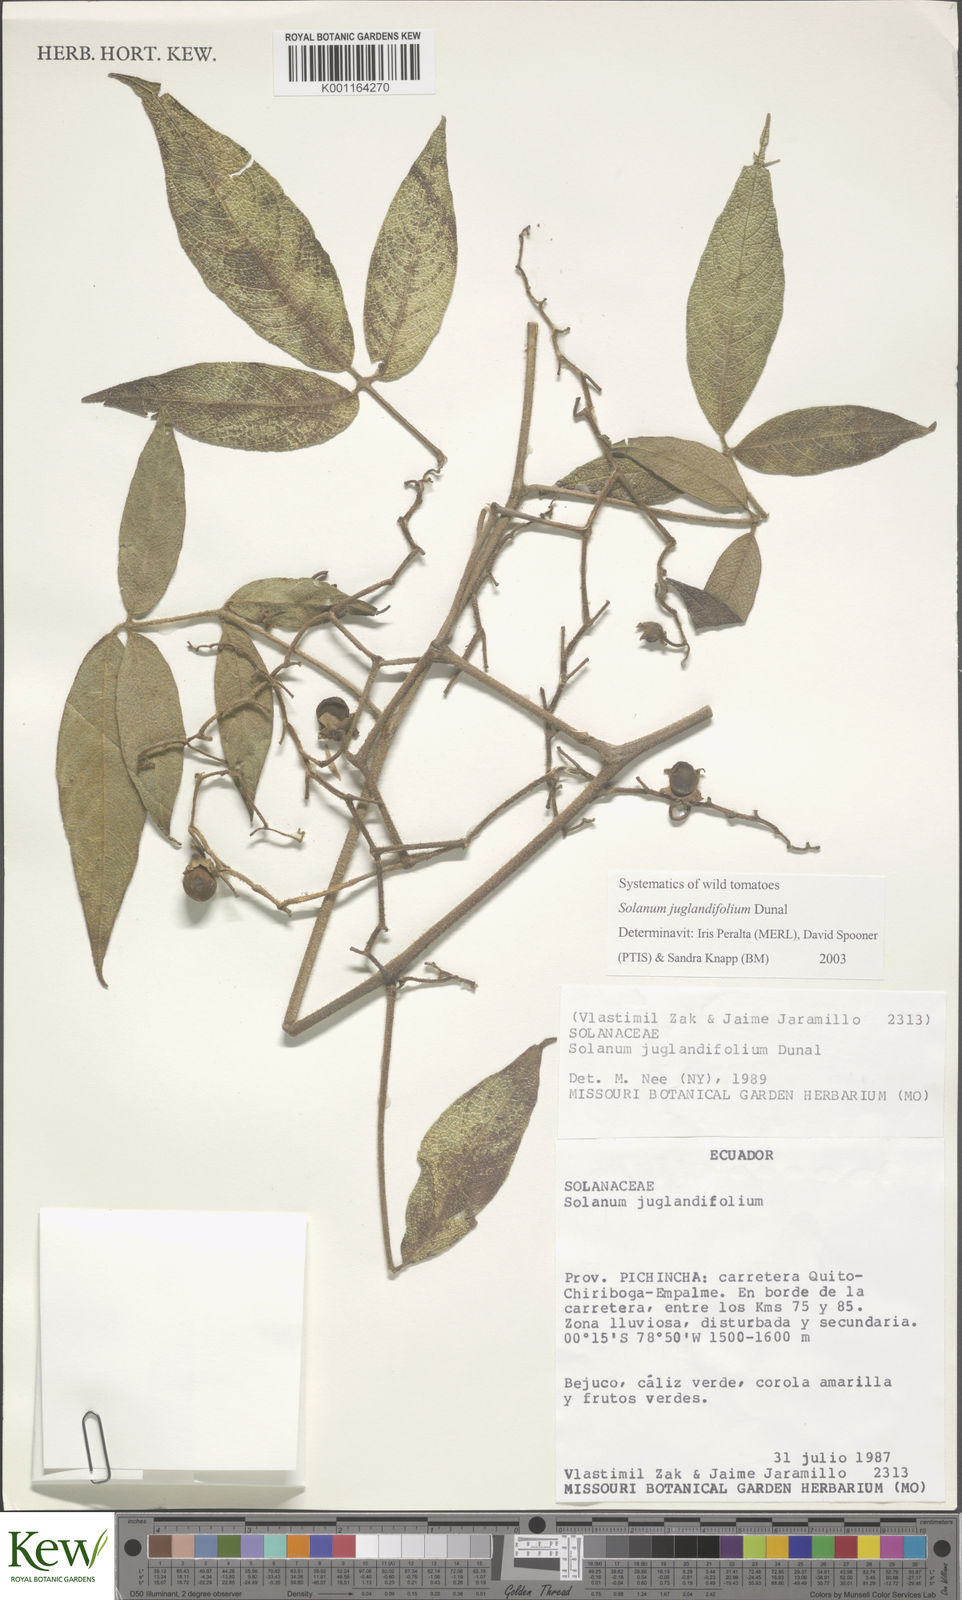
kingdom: Plantae
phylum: Tracheophyta
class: Magnoliopsida
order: Solanales
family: Solanaceae
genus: Solanum
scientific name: Solanum juglandifolium
